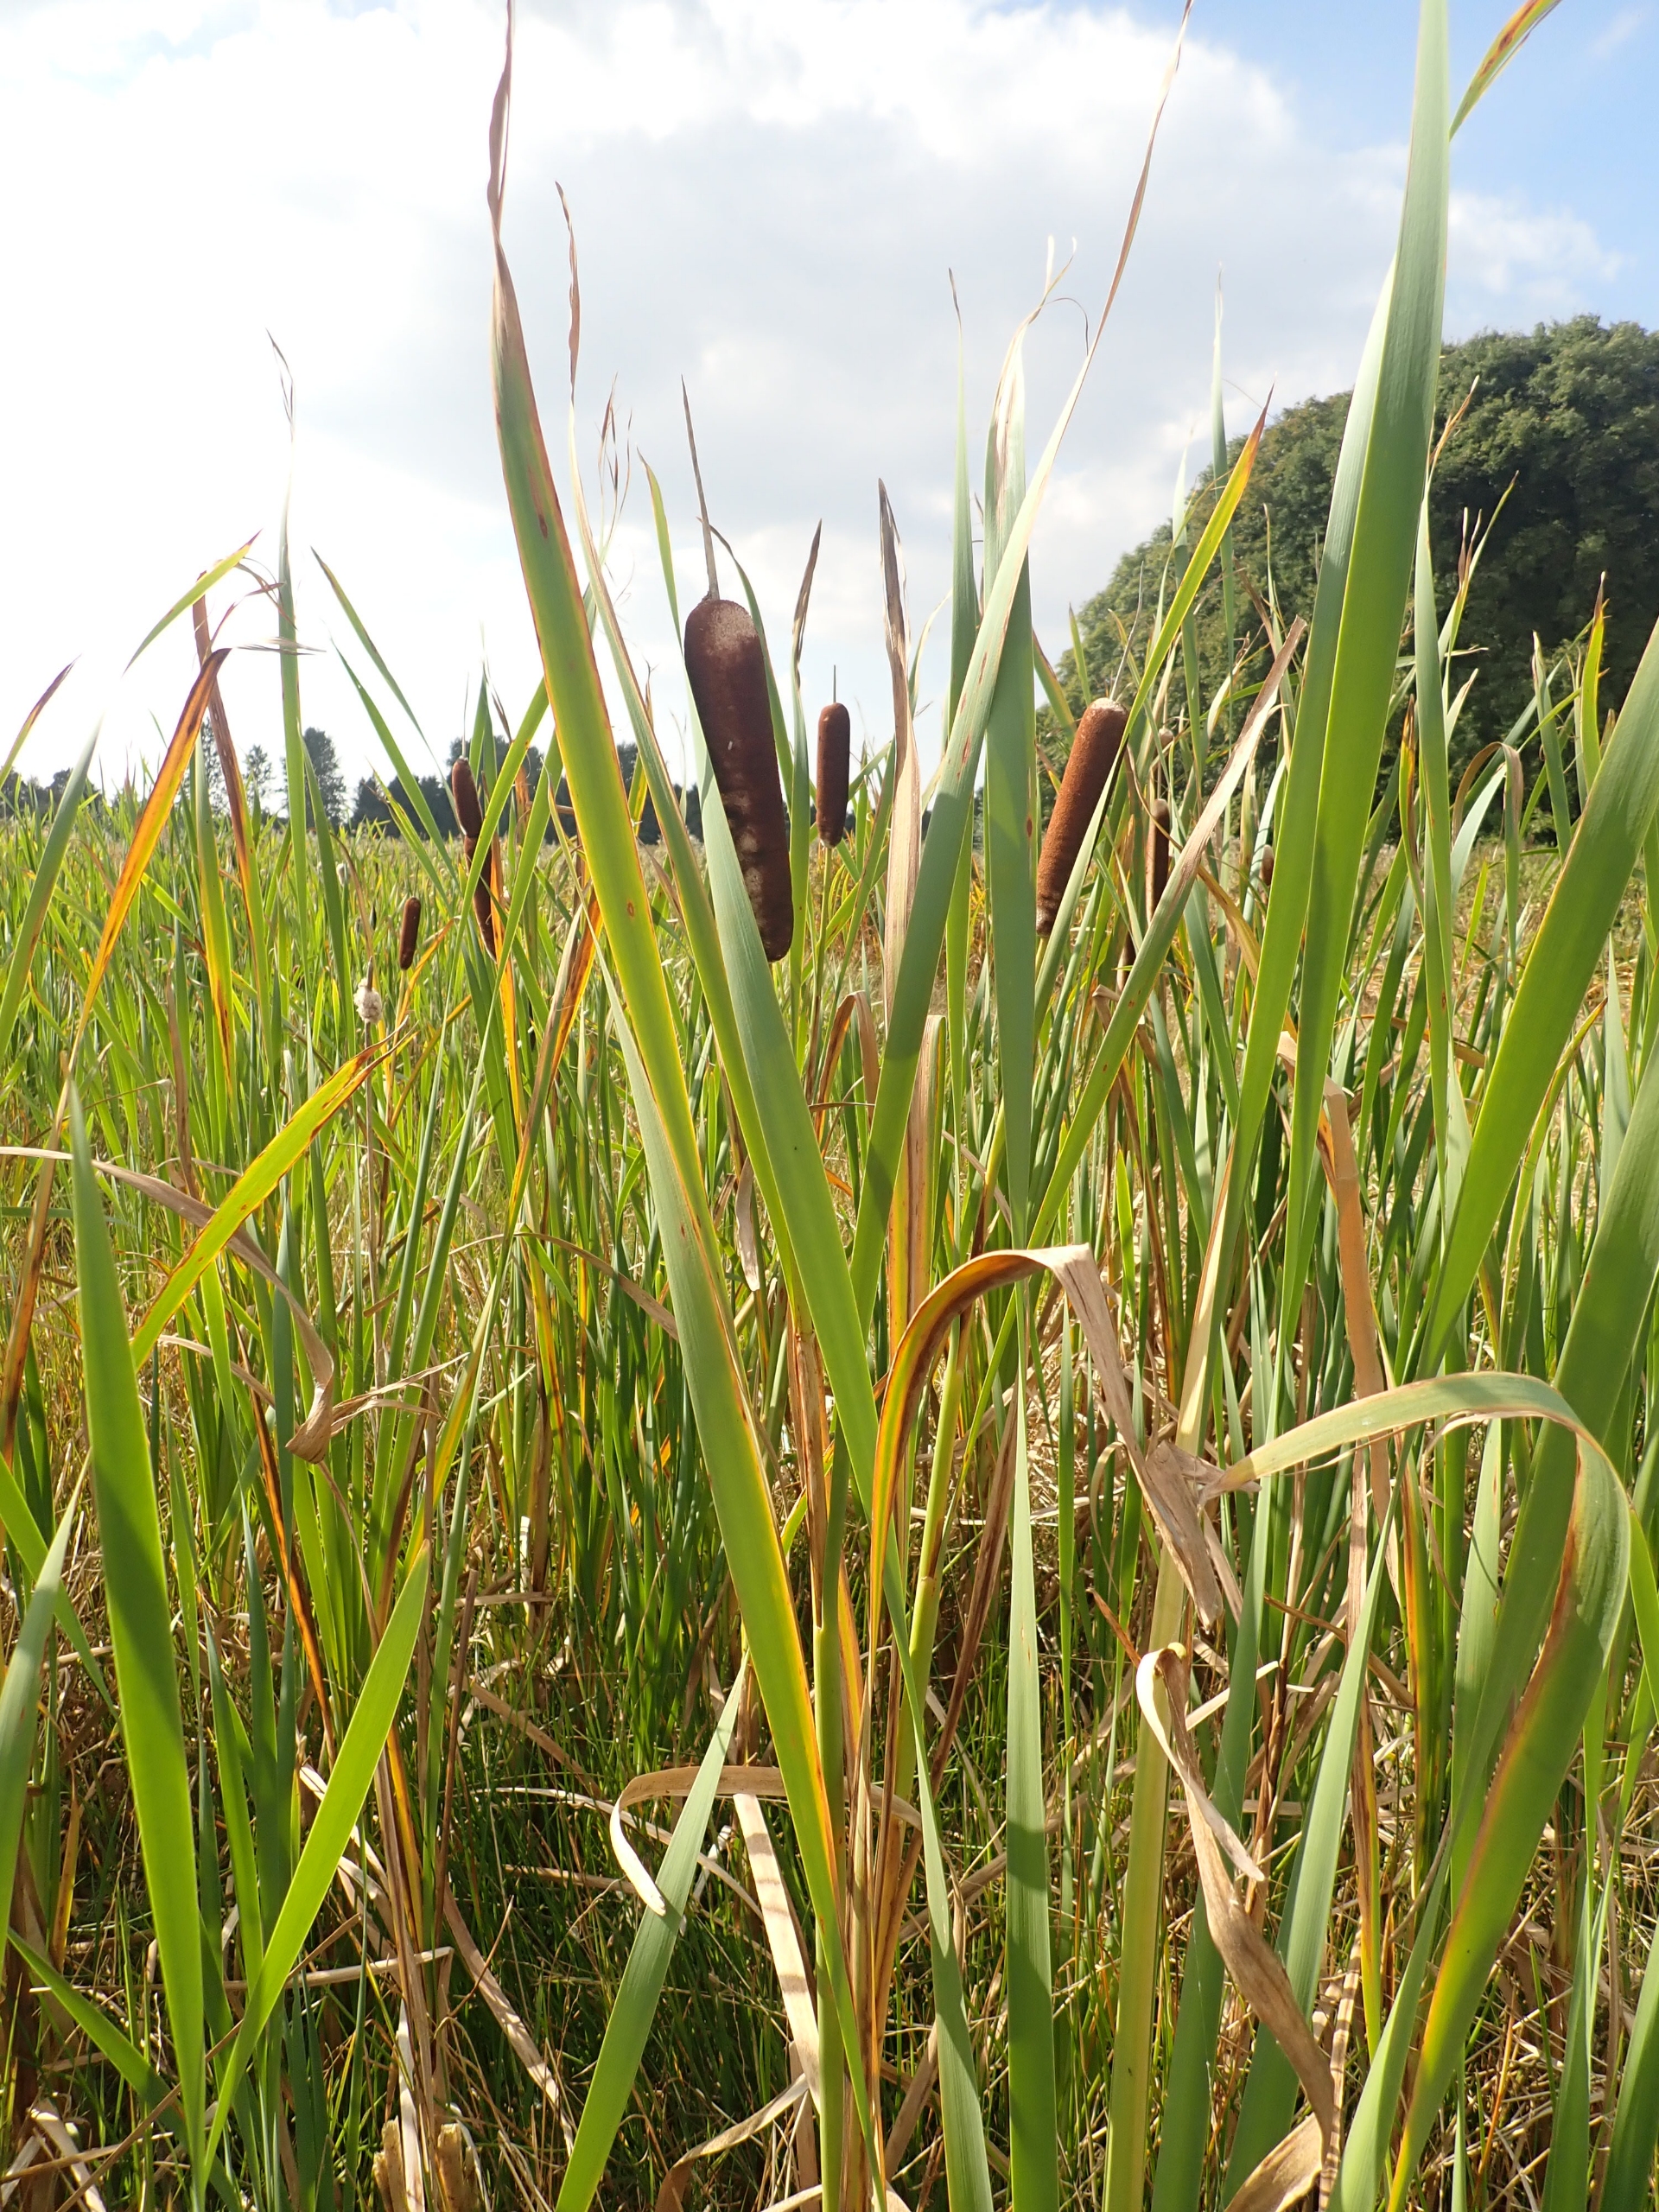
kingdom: Plantae
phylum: Tracheophyta
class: Liliopsida
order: Poales
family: Typhaceae
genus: Typha
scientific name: Typha latifolia
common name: Bredbladet dunhammer
